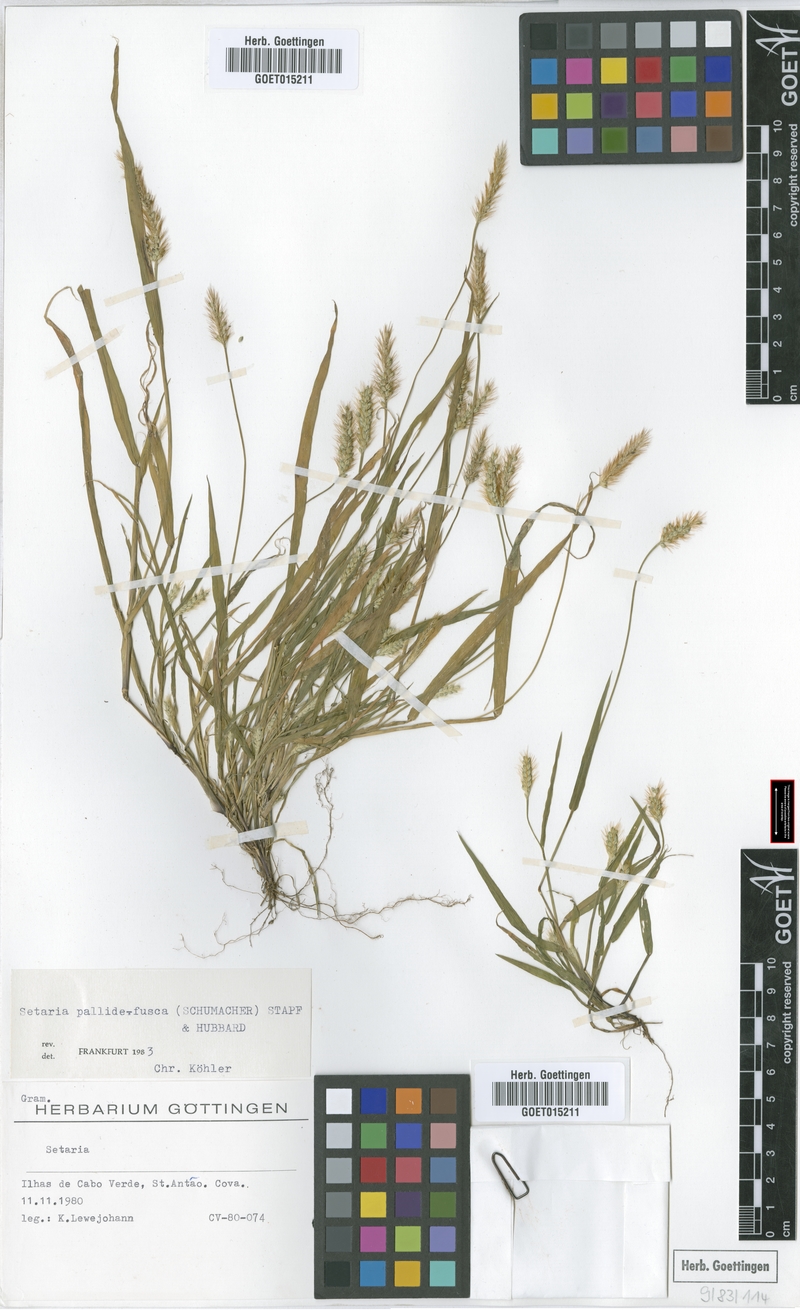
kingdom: Plantae
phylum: Tracheophyta
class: Liliopsida
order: Poales
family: Poaceae
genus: Setaria
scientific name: Setaria pumila
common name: Yellow bristle-grass
